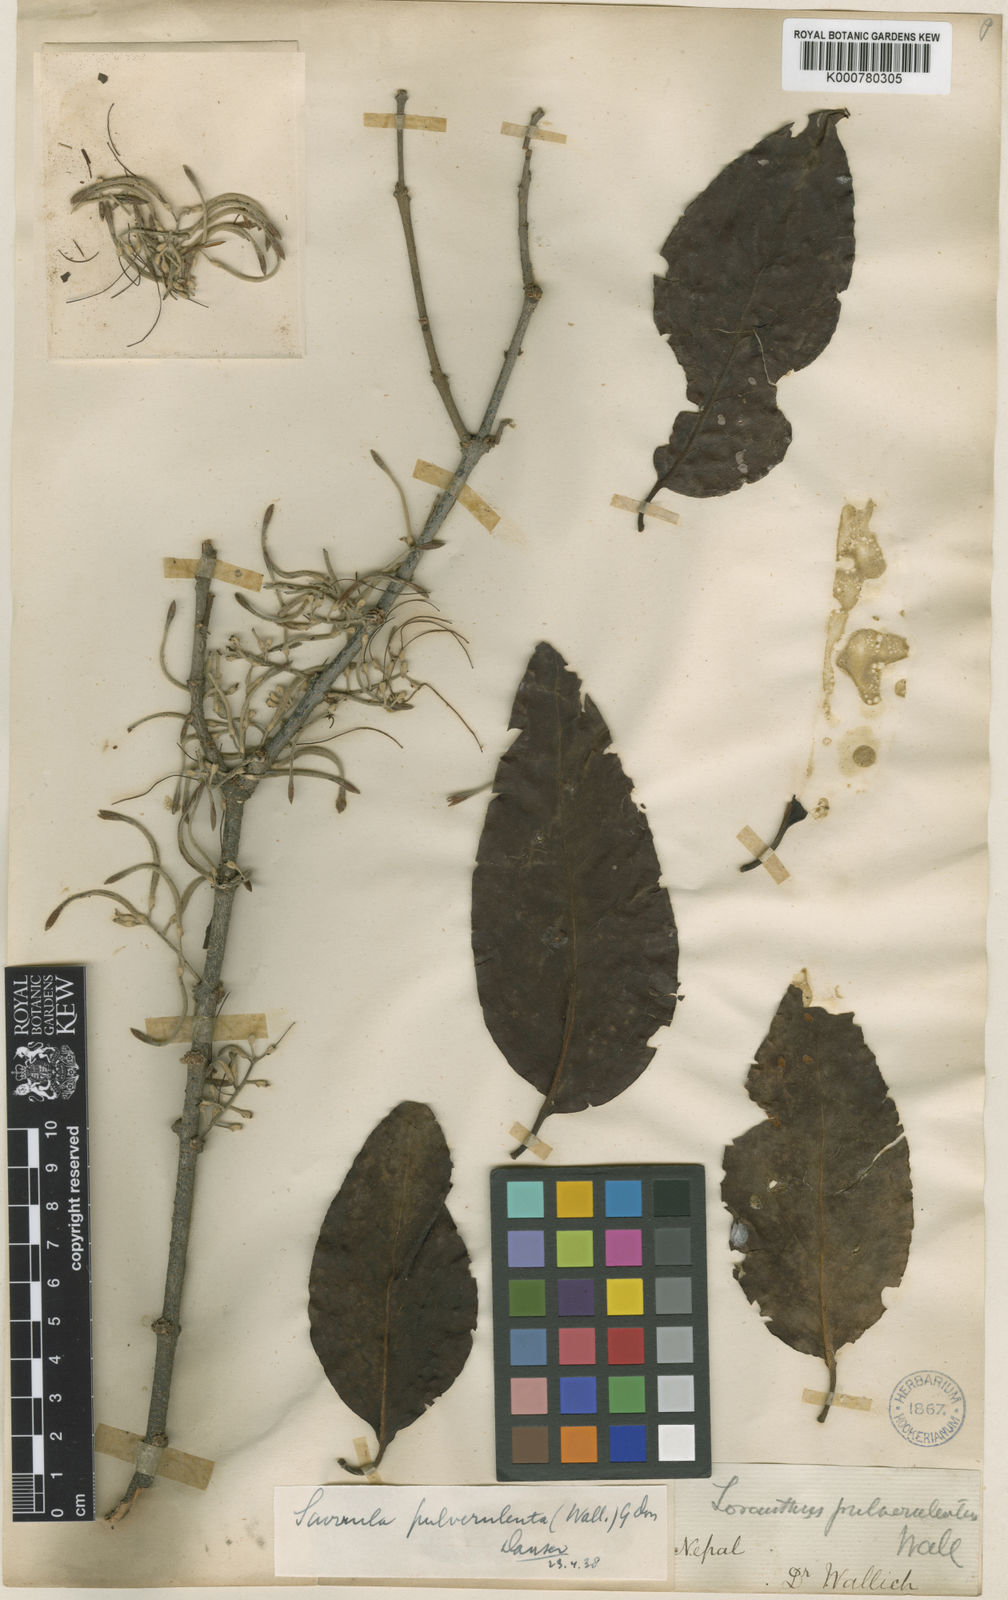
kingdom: Plantae
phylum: Tracheophyta
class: Magnoliopsida
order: Santalales
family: Loranthaceae
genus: Scurrula
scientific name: Scurrula pulverulenta
